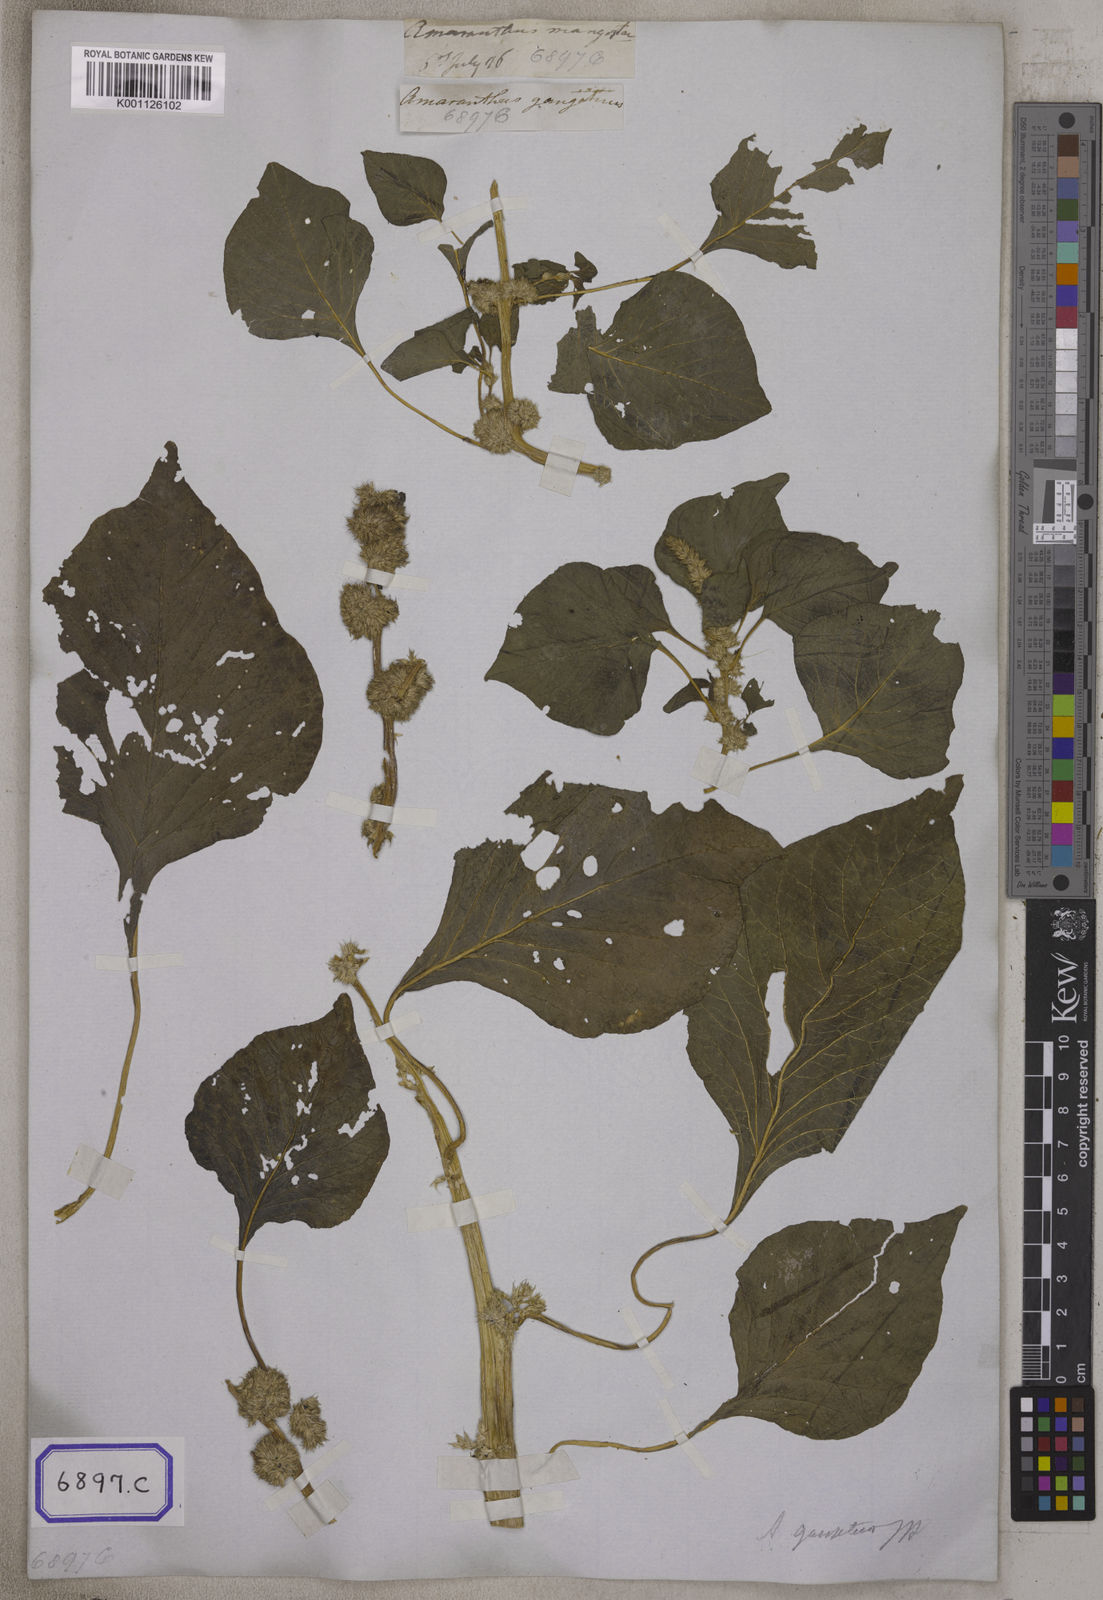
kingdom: Plantae
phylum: Tracheophyta
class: Magnoliopsida
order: Caryophyllales
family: Amaranthaceae
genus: Amaranthus
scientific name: Amaranthus
